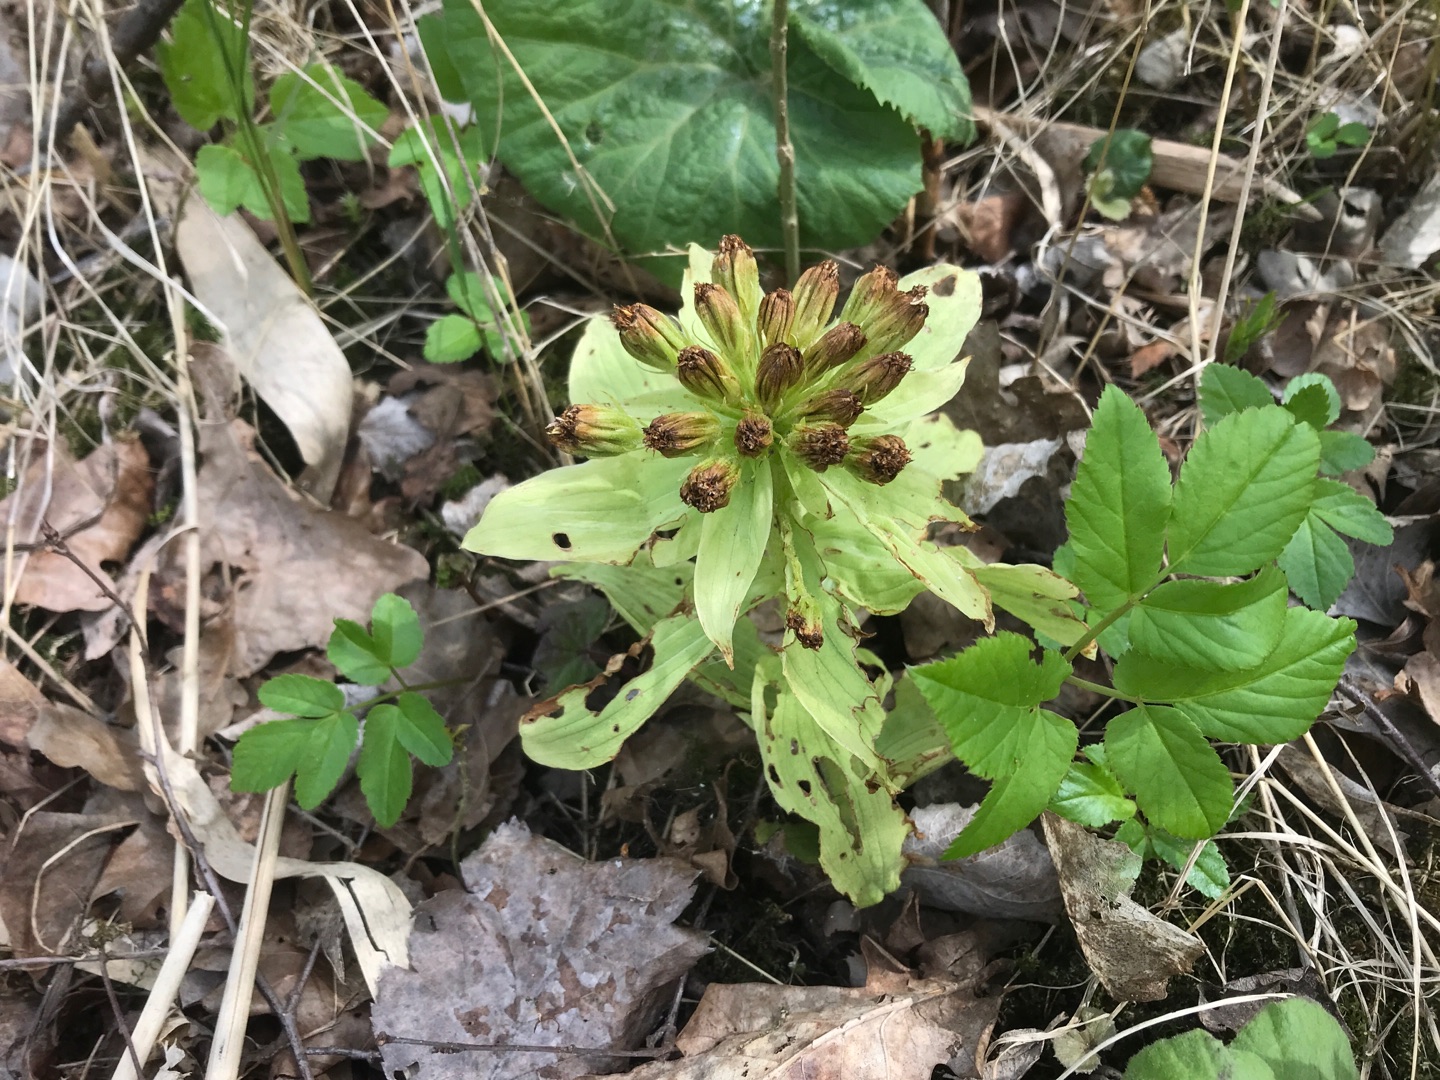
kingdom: Plantae
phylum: Tracheophyta
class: Magnoliopsida
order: Asterales
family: Asteraceae
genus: Petasites
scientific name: Petasites japonicus
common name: Japansk hestehov
